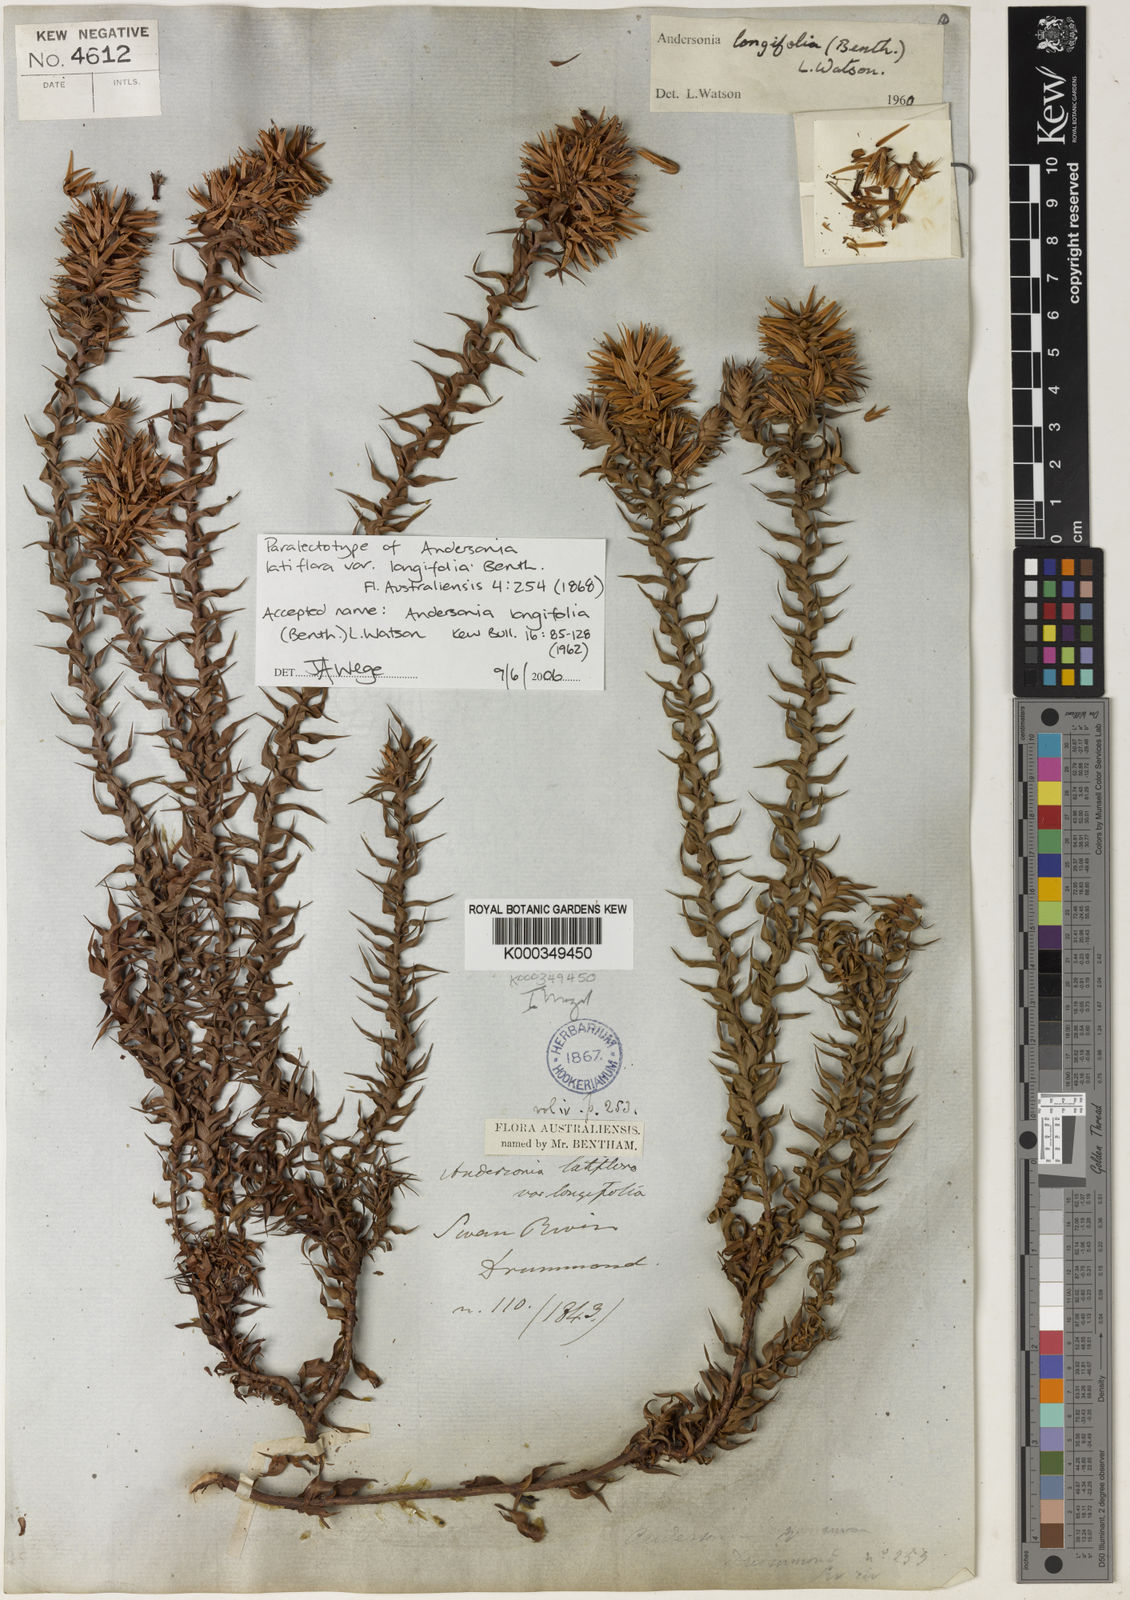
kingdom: Plantae
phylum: Tracheophyta
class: Magnoliopsida
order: Ericales
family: Ericaceae
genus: Andersonia
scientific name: Andersonia longifolia
